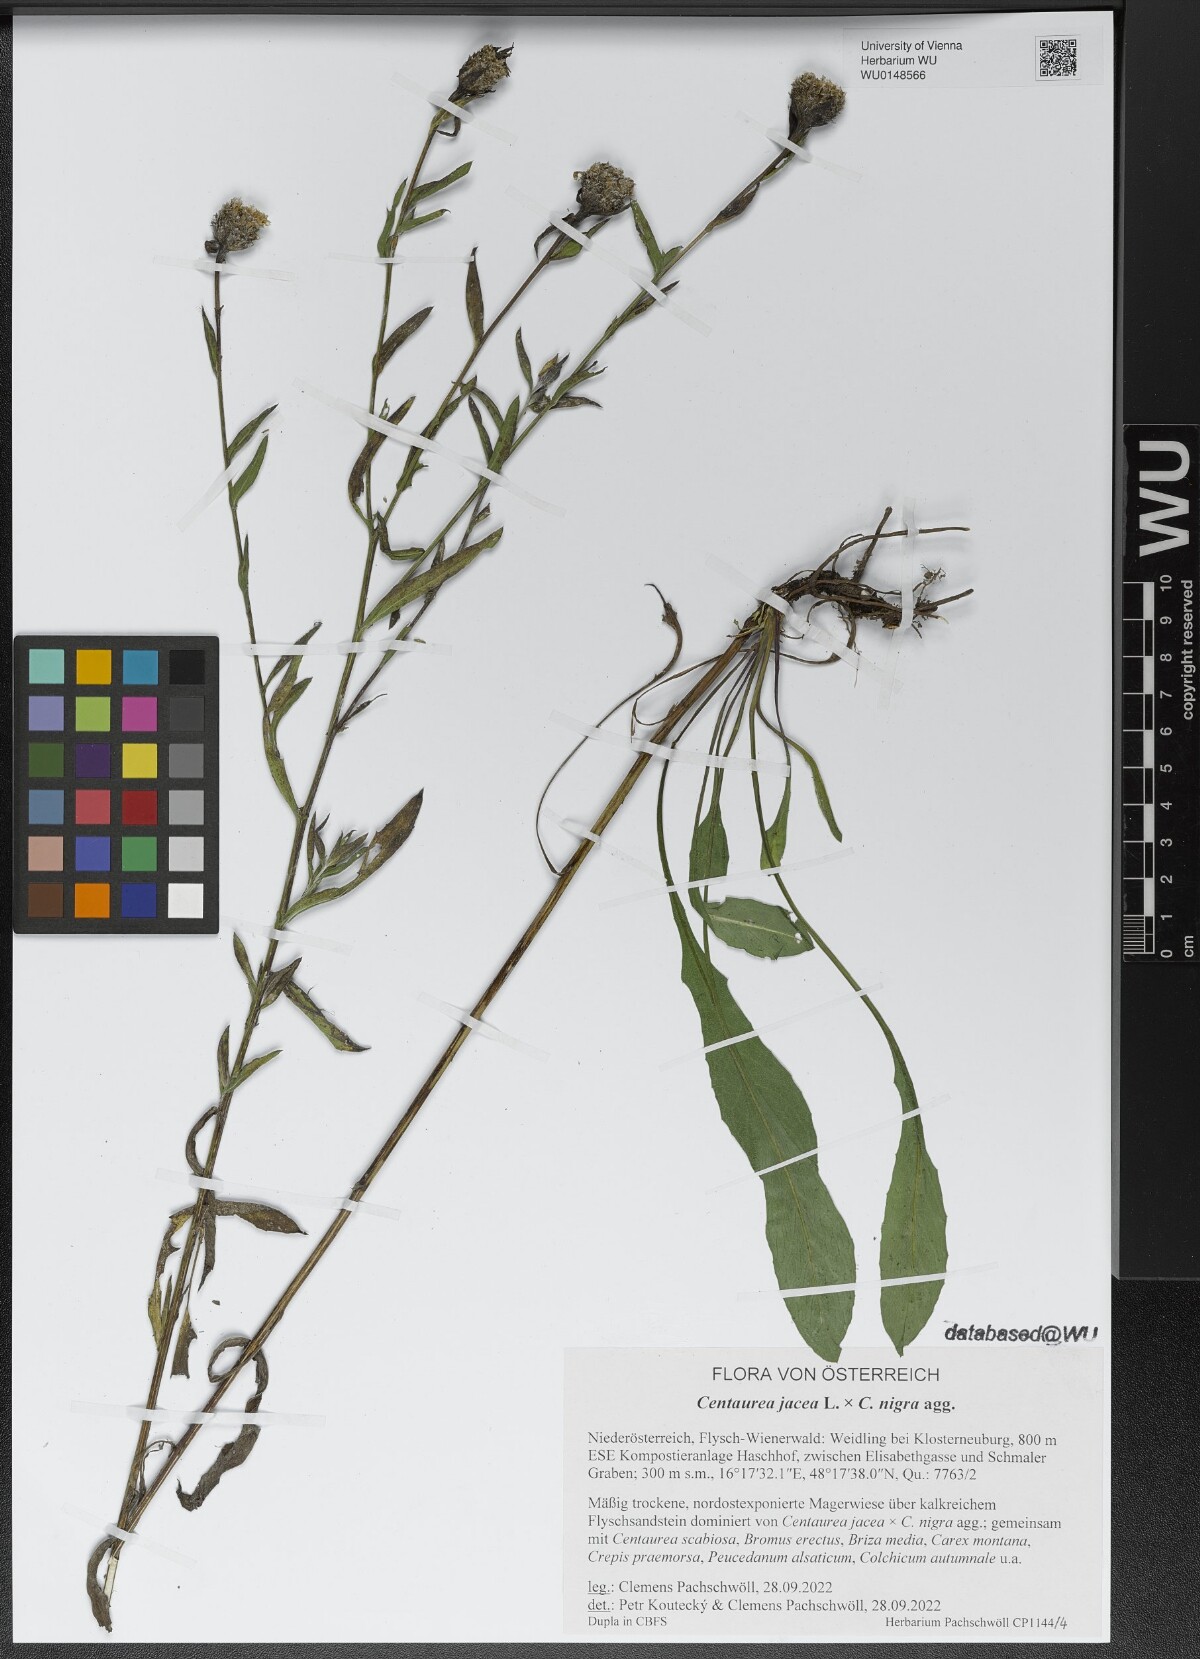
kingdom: Plantae
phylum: Tracheophyta
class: Magnoliopsida
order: Asterales
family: Asteraceae
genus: Centaurea
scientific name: Centaurea
